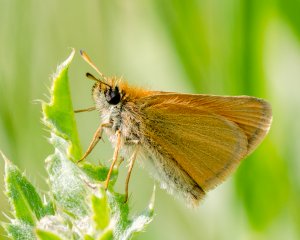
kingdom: Animalia
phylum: Arthropoda
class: Insecta
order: Lepidoptera
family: Hesperiidae
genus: Thymelicus
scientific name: Thymelicus lineola
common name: European Skipper
